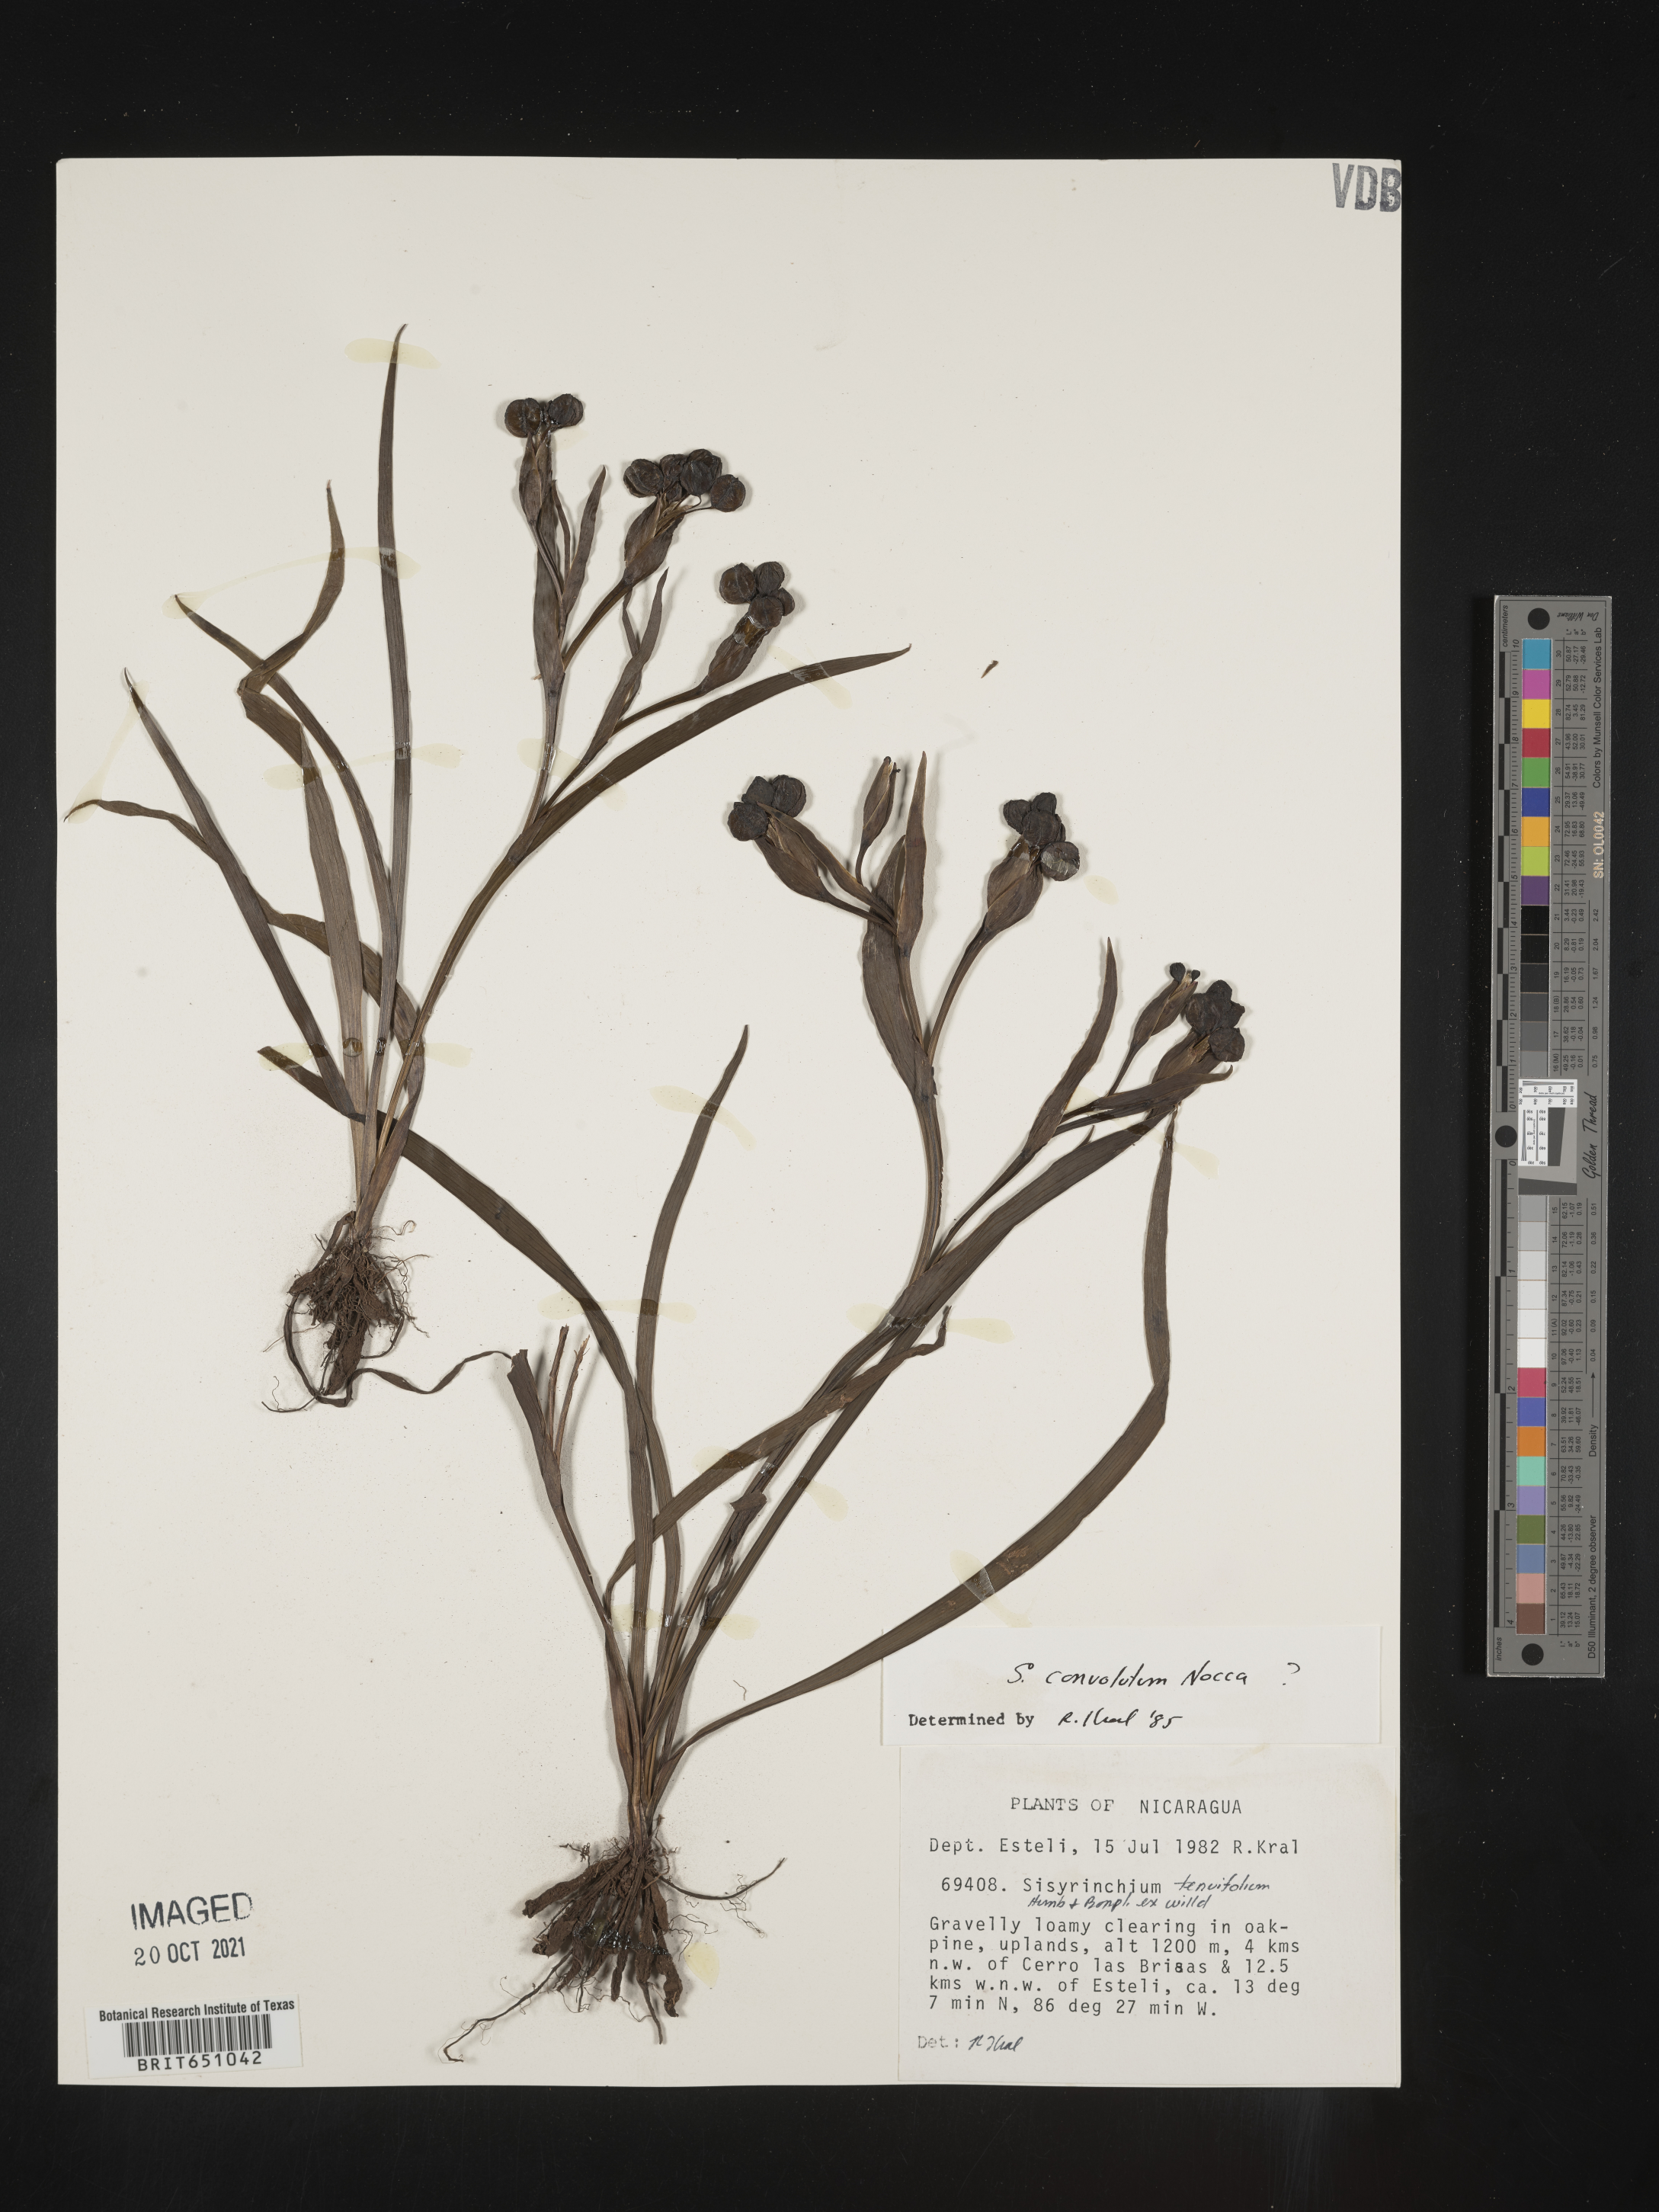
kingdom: Plantae
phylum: Tracheophyta
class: Liliopsida
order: Asparagales
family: Iridaceae
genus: Sisyrinchium
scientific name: Sisyrinchium
